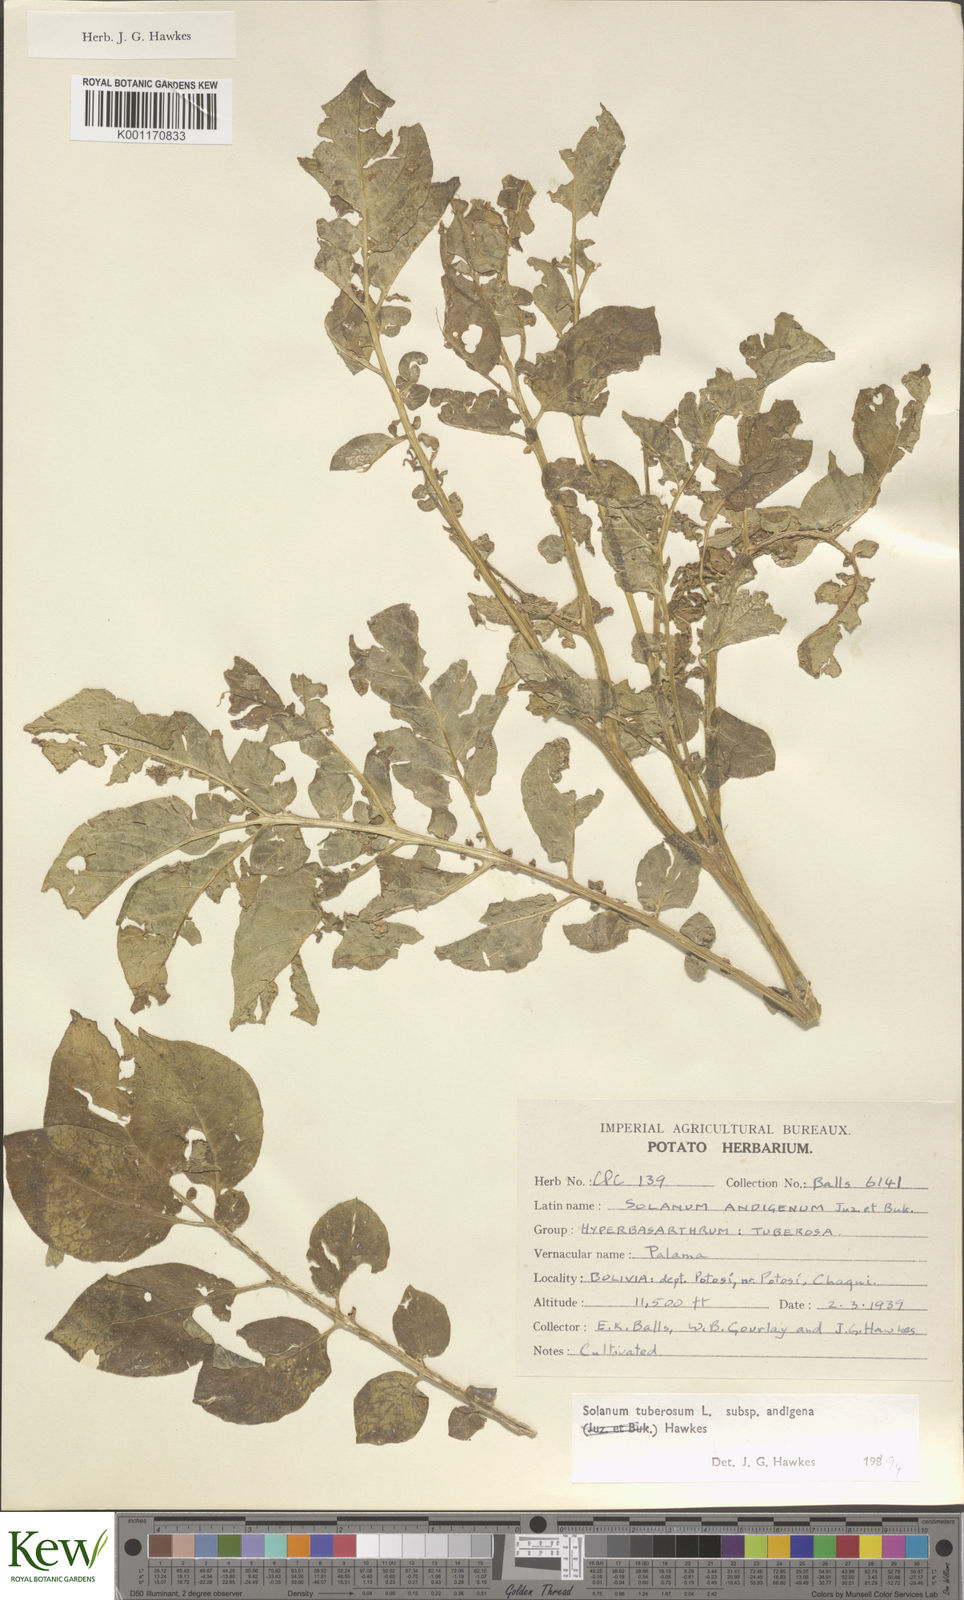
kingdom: Plantae
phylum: Tracheophyta
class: Magnoliopsida
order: Solanales
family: Solanaceae
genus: Solanum
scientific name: Solanum tuberosum
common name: Potato
